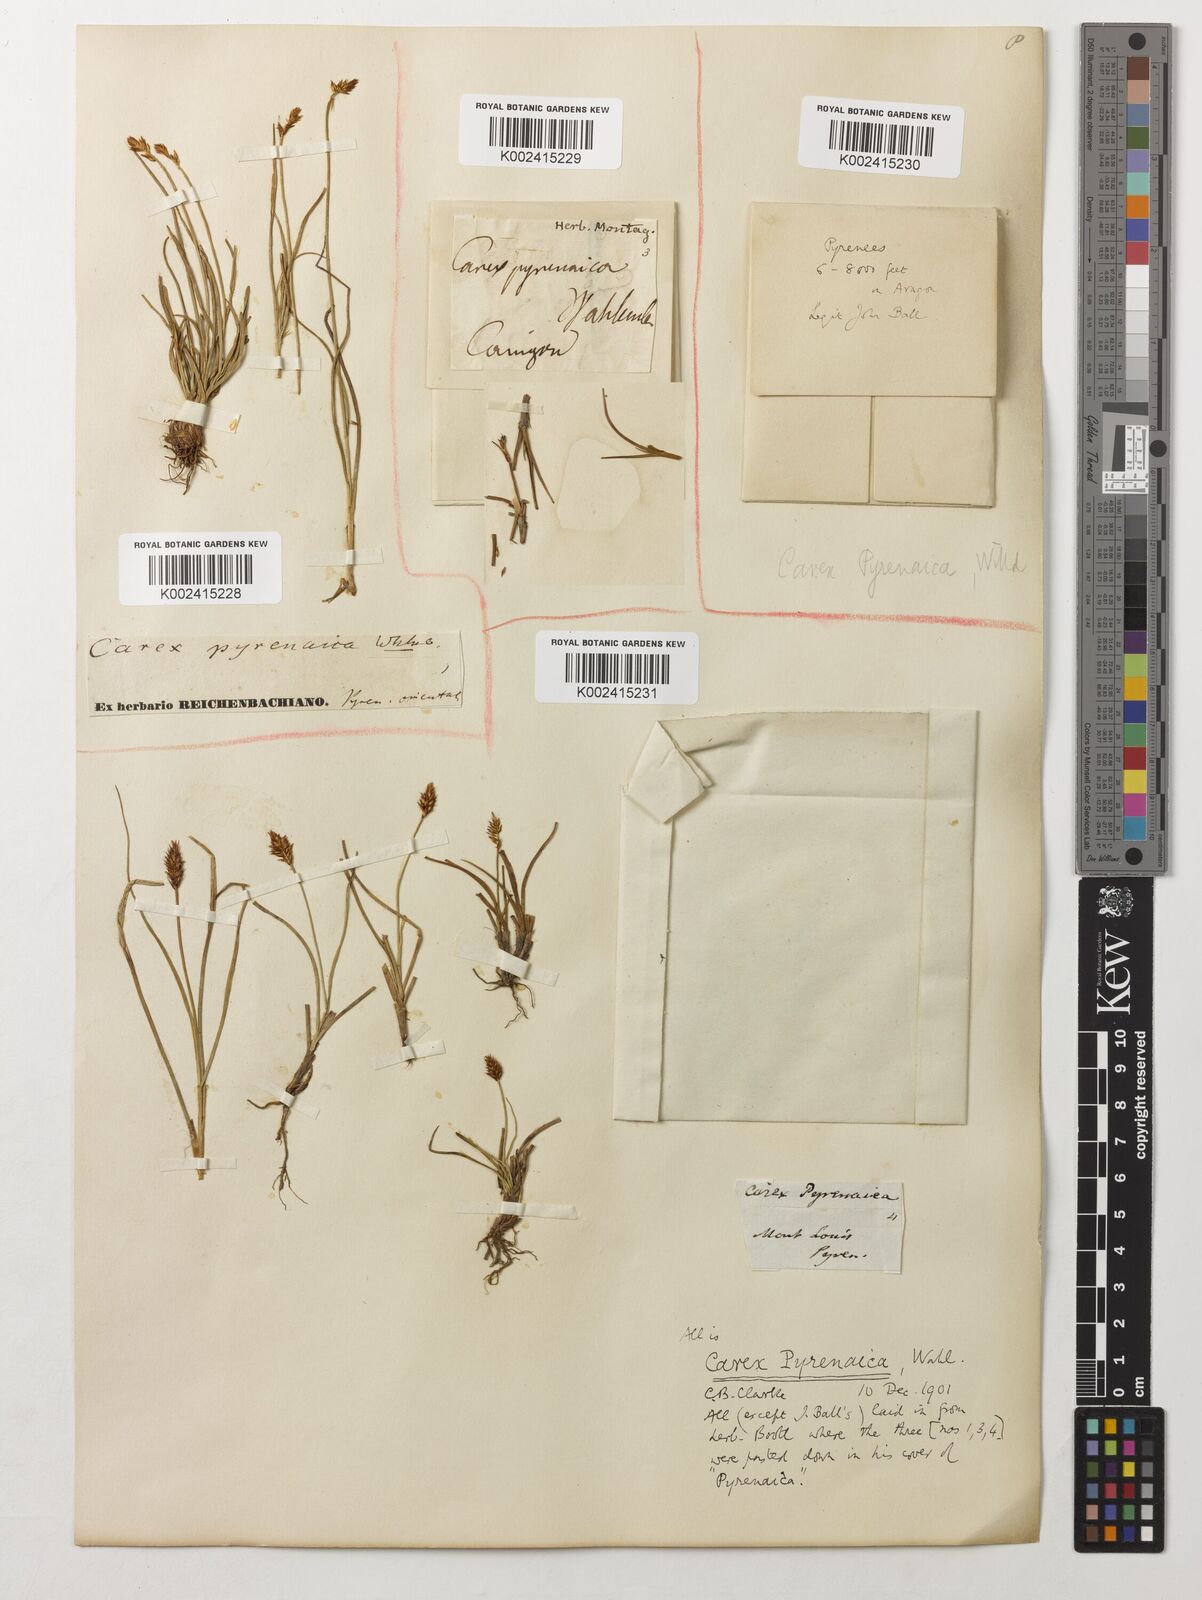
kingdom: Plantae
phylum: Tracheophyta
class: Liliopsida
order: Poales
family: Cyperaceae
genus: Carex
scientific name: Carex pyrenaica
